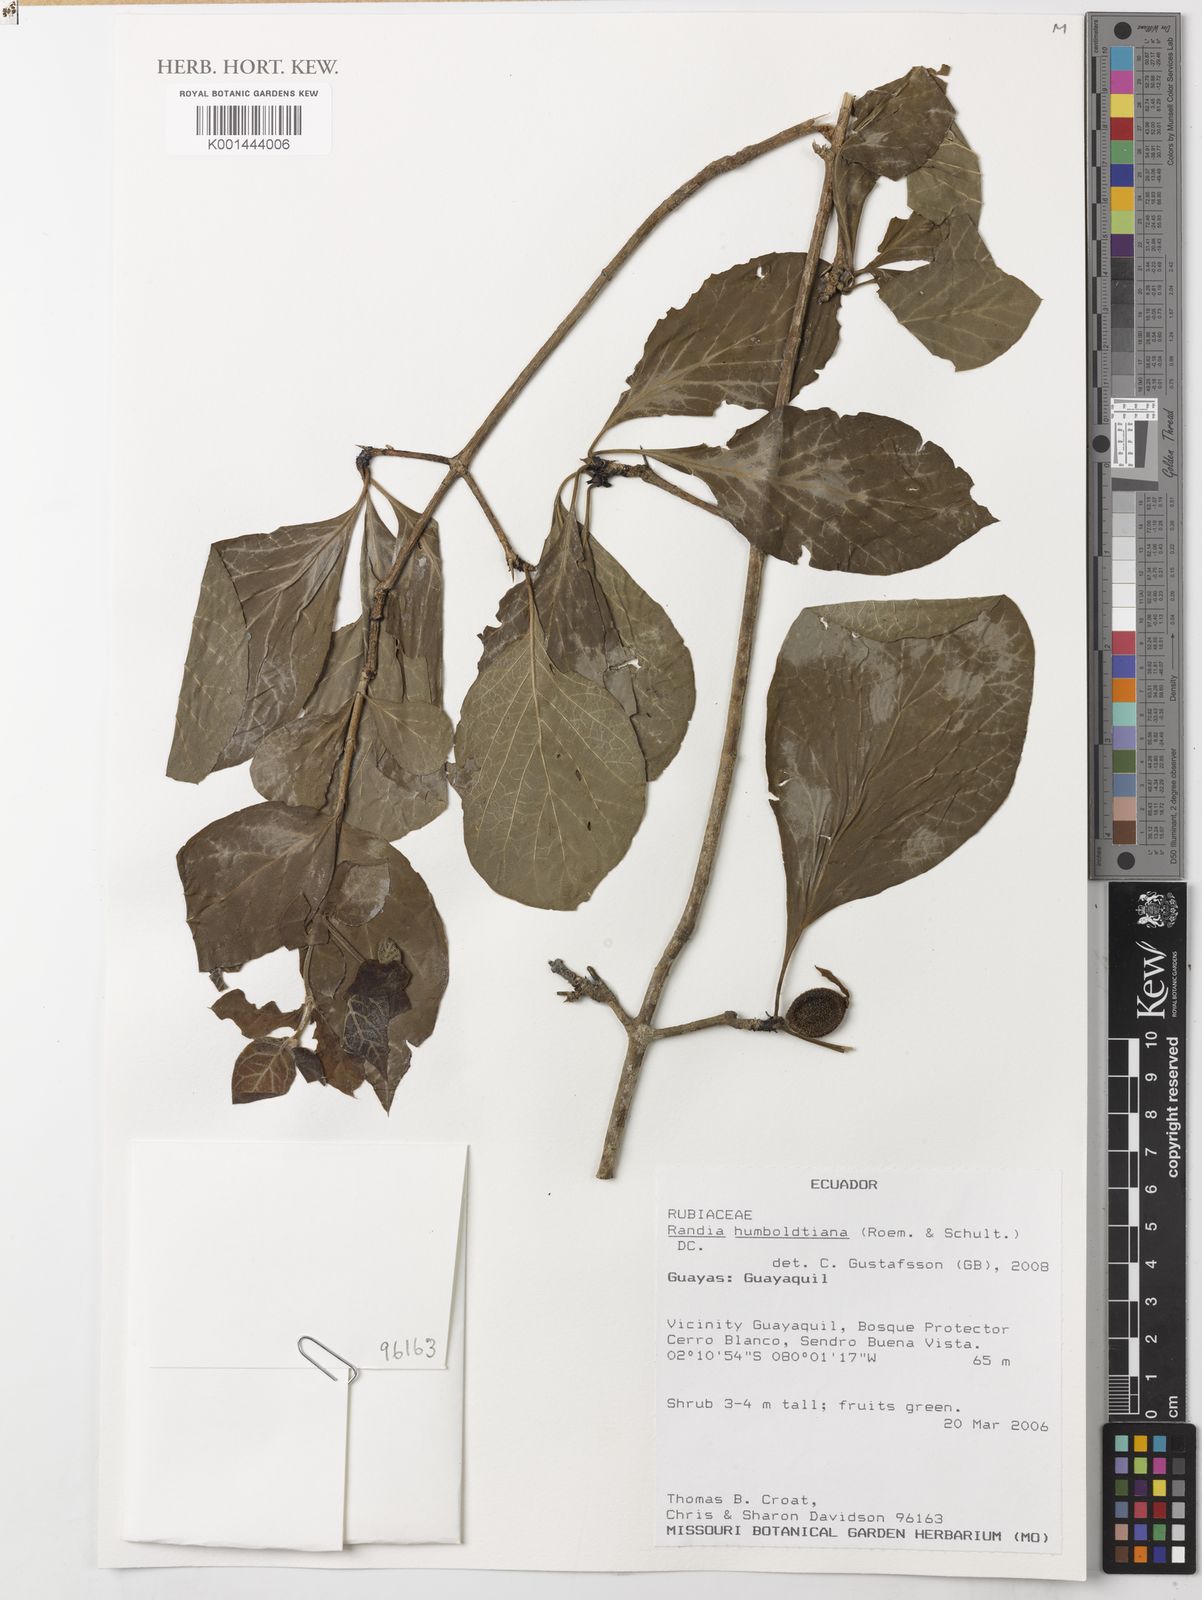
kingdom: Plantae
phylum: Tracheophyta
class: Magnoliopsida
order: Gentianales
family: Rubiaceae
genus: Randia
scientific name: Randia nitida
